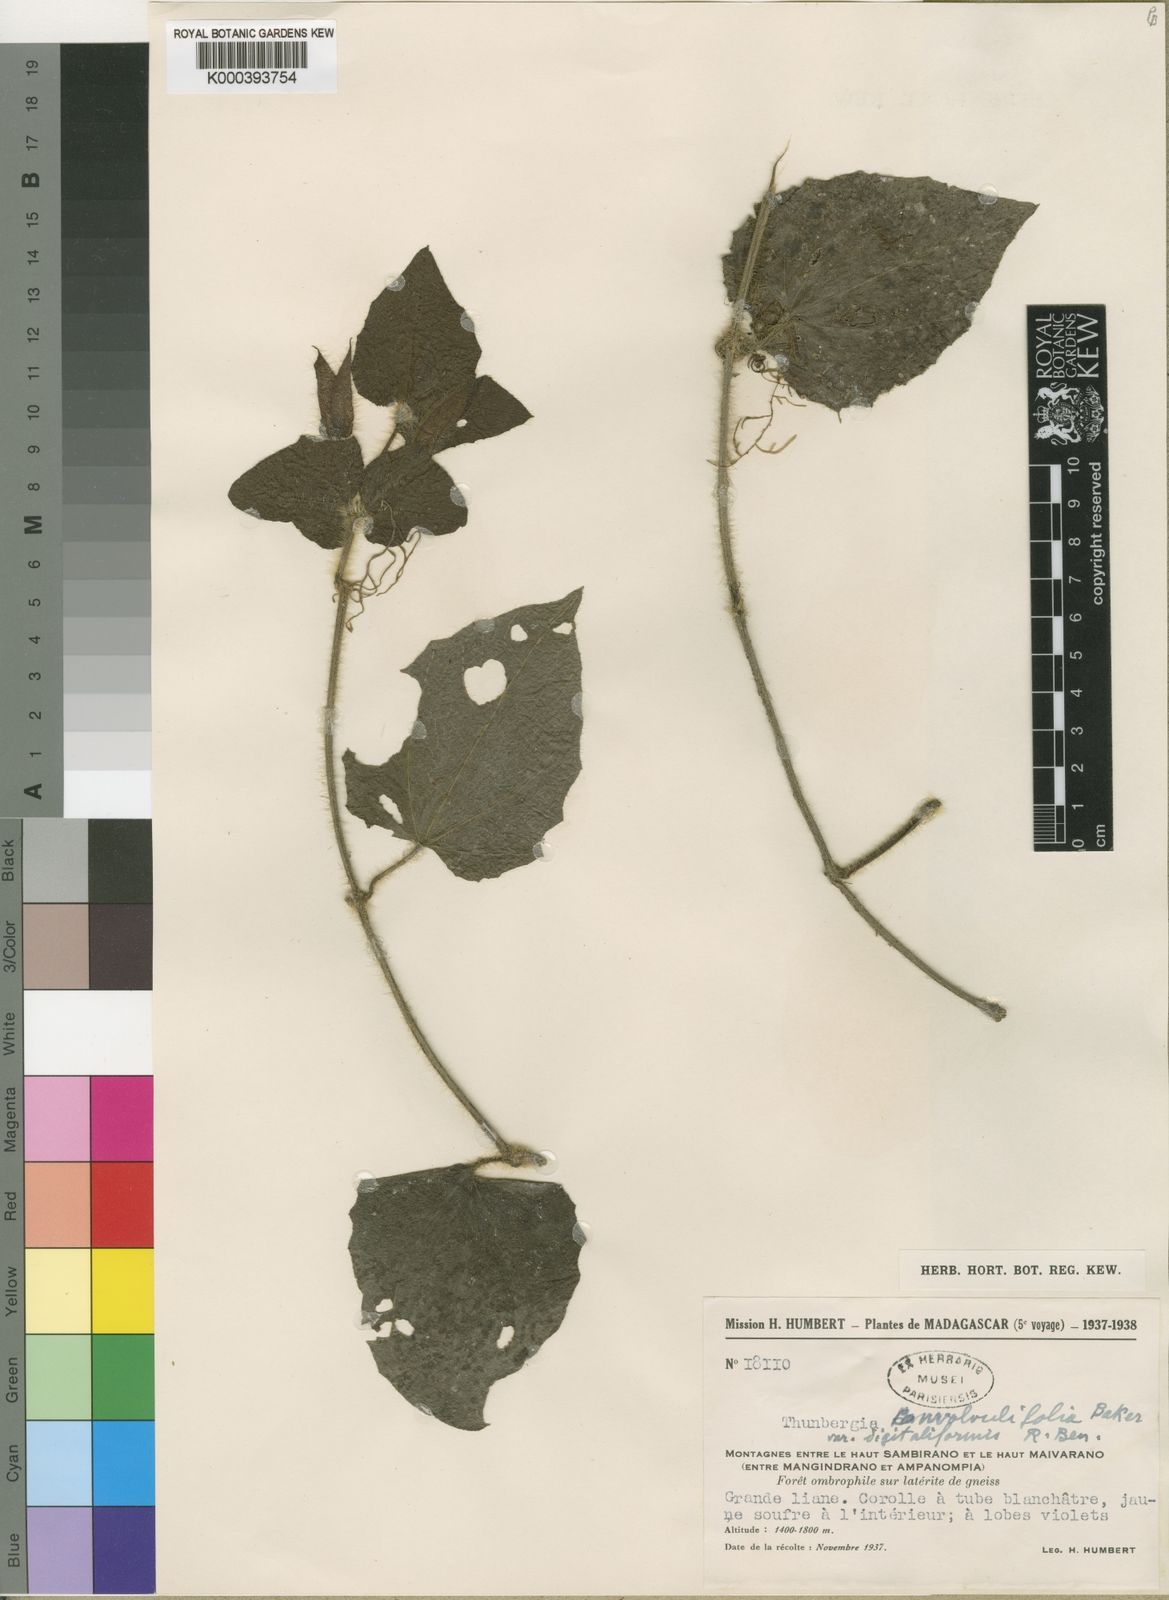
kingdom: Plantae
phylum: Tracheophyta
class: Magnoliopsida
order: Lamiales
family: Acanthaceae
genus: Thunbergia
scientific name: Thunbergia convolvulifolia
